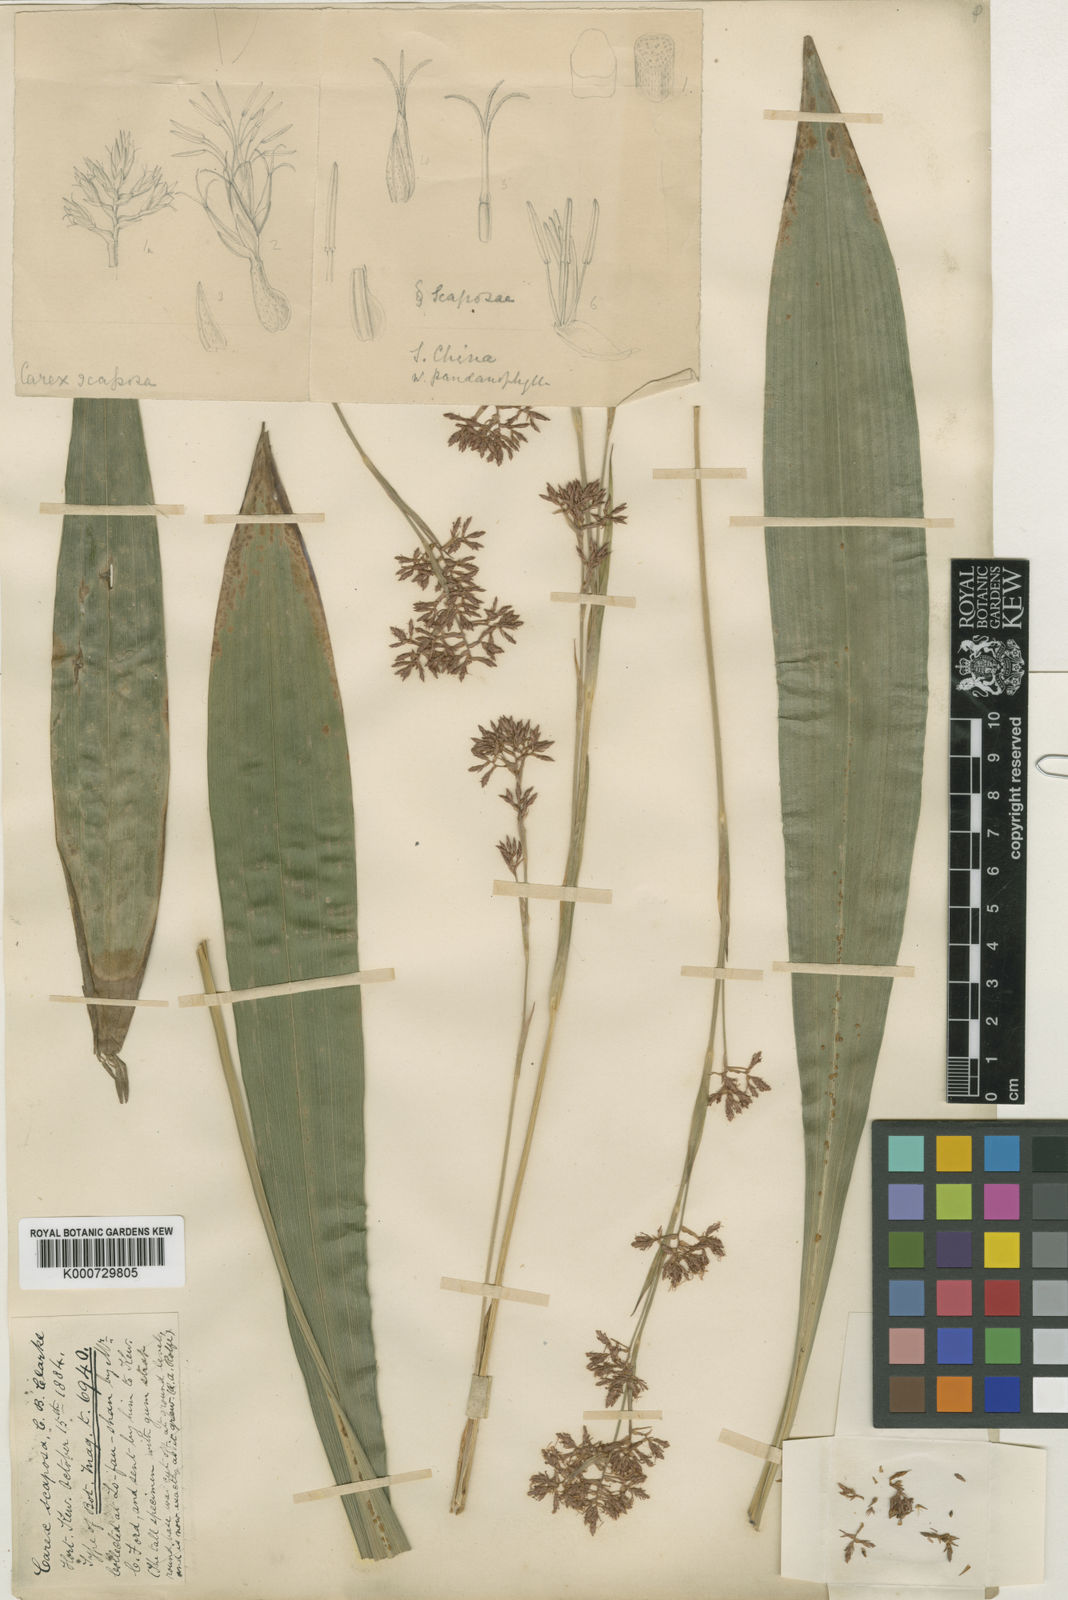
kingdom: Plantae
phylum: Tracheophyta
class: Liliopsida
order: Poales
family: Cyperaceae
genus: Carex
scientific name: Carex scaposa
